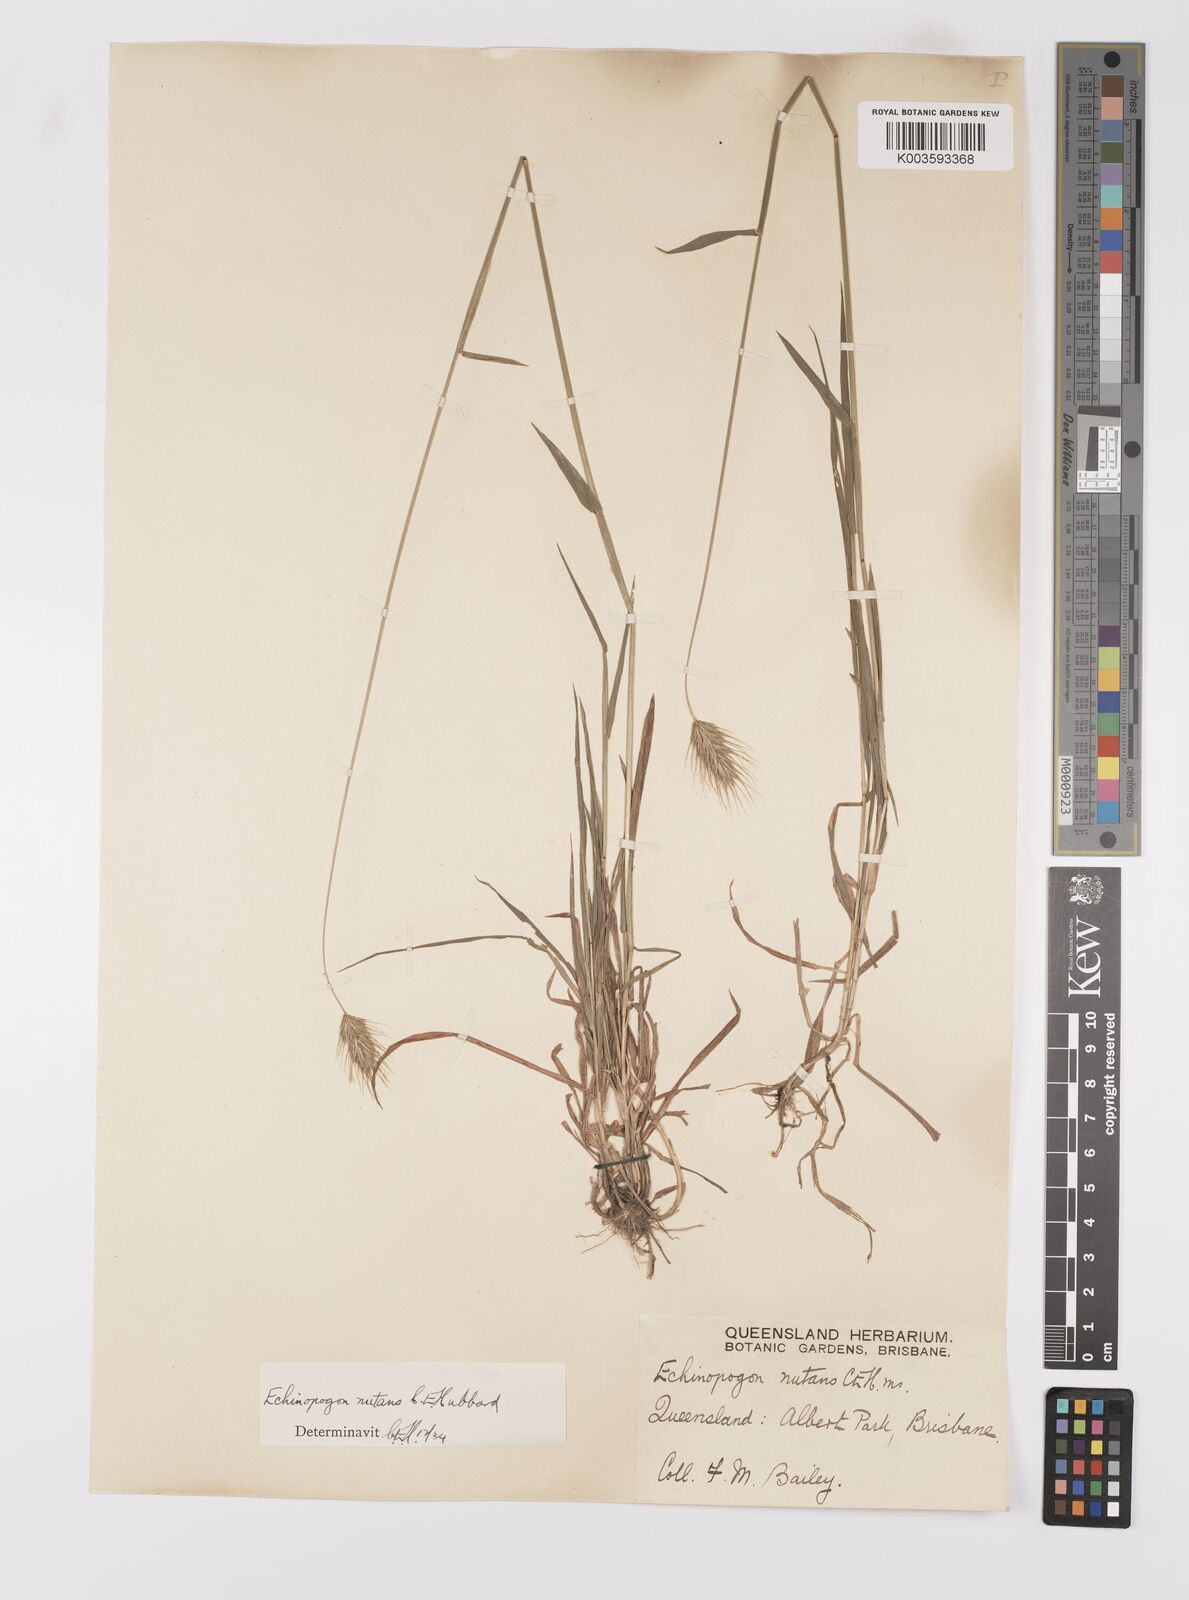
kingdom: Plantae
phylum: Tracheophyta
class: Liliopsida
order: Poales
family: Poaceae
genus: Echinopogon
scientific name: Echinopogon nutans
